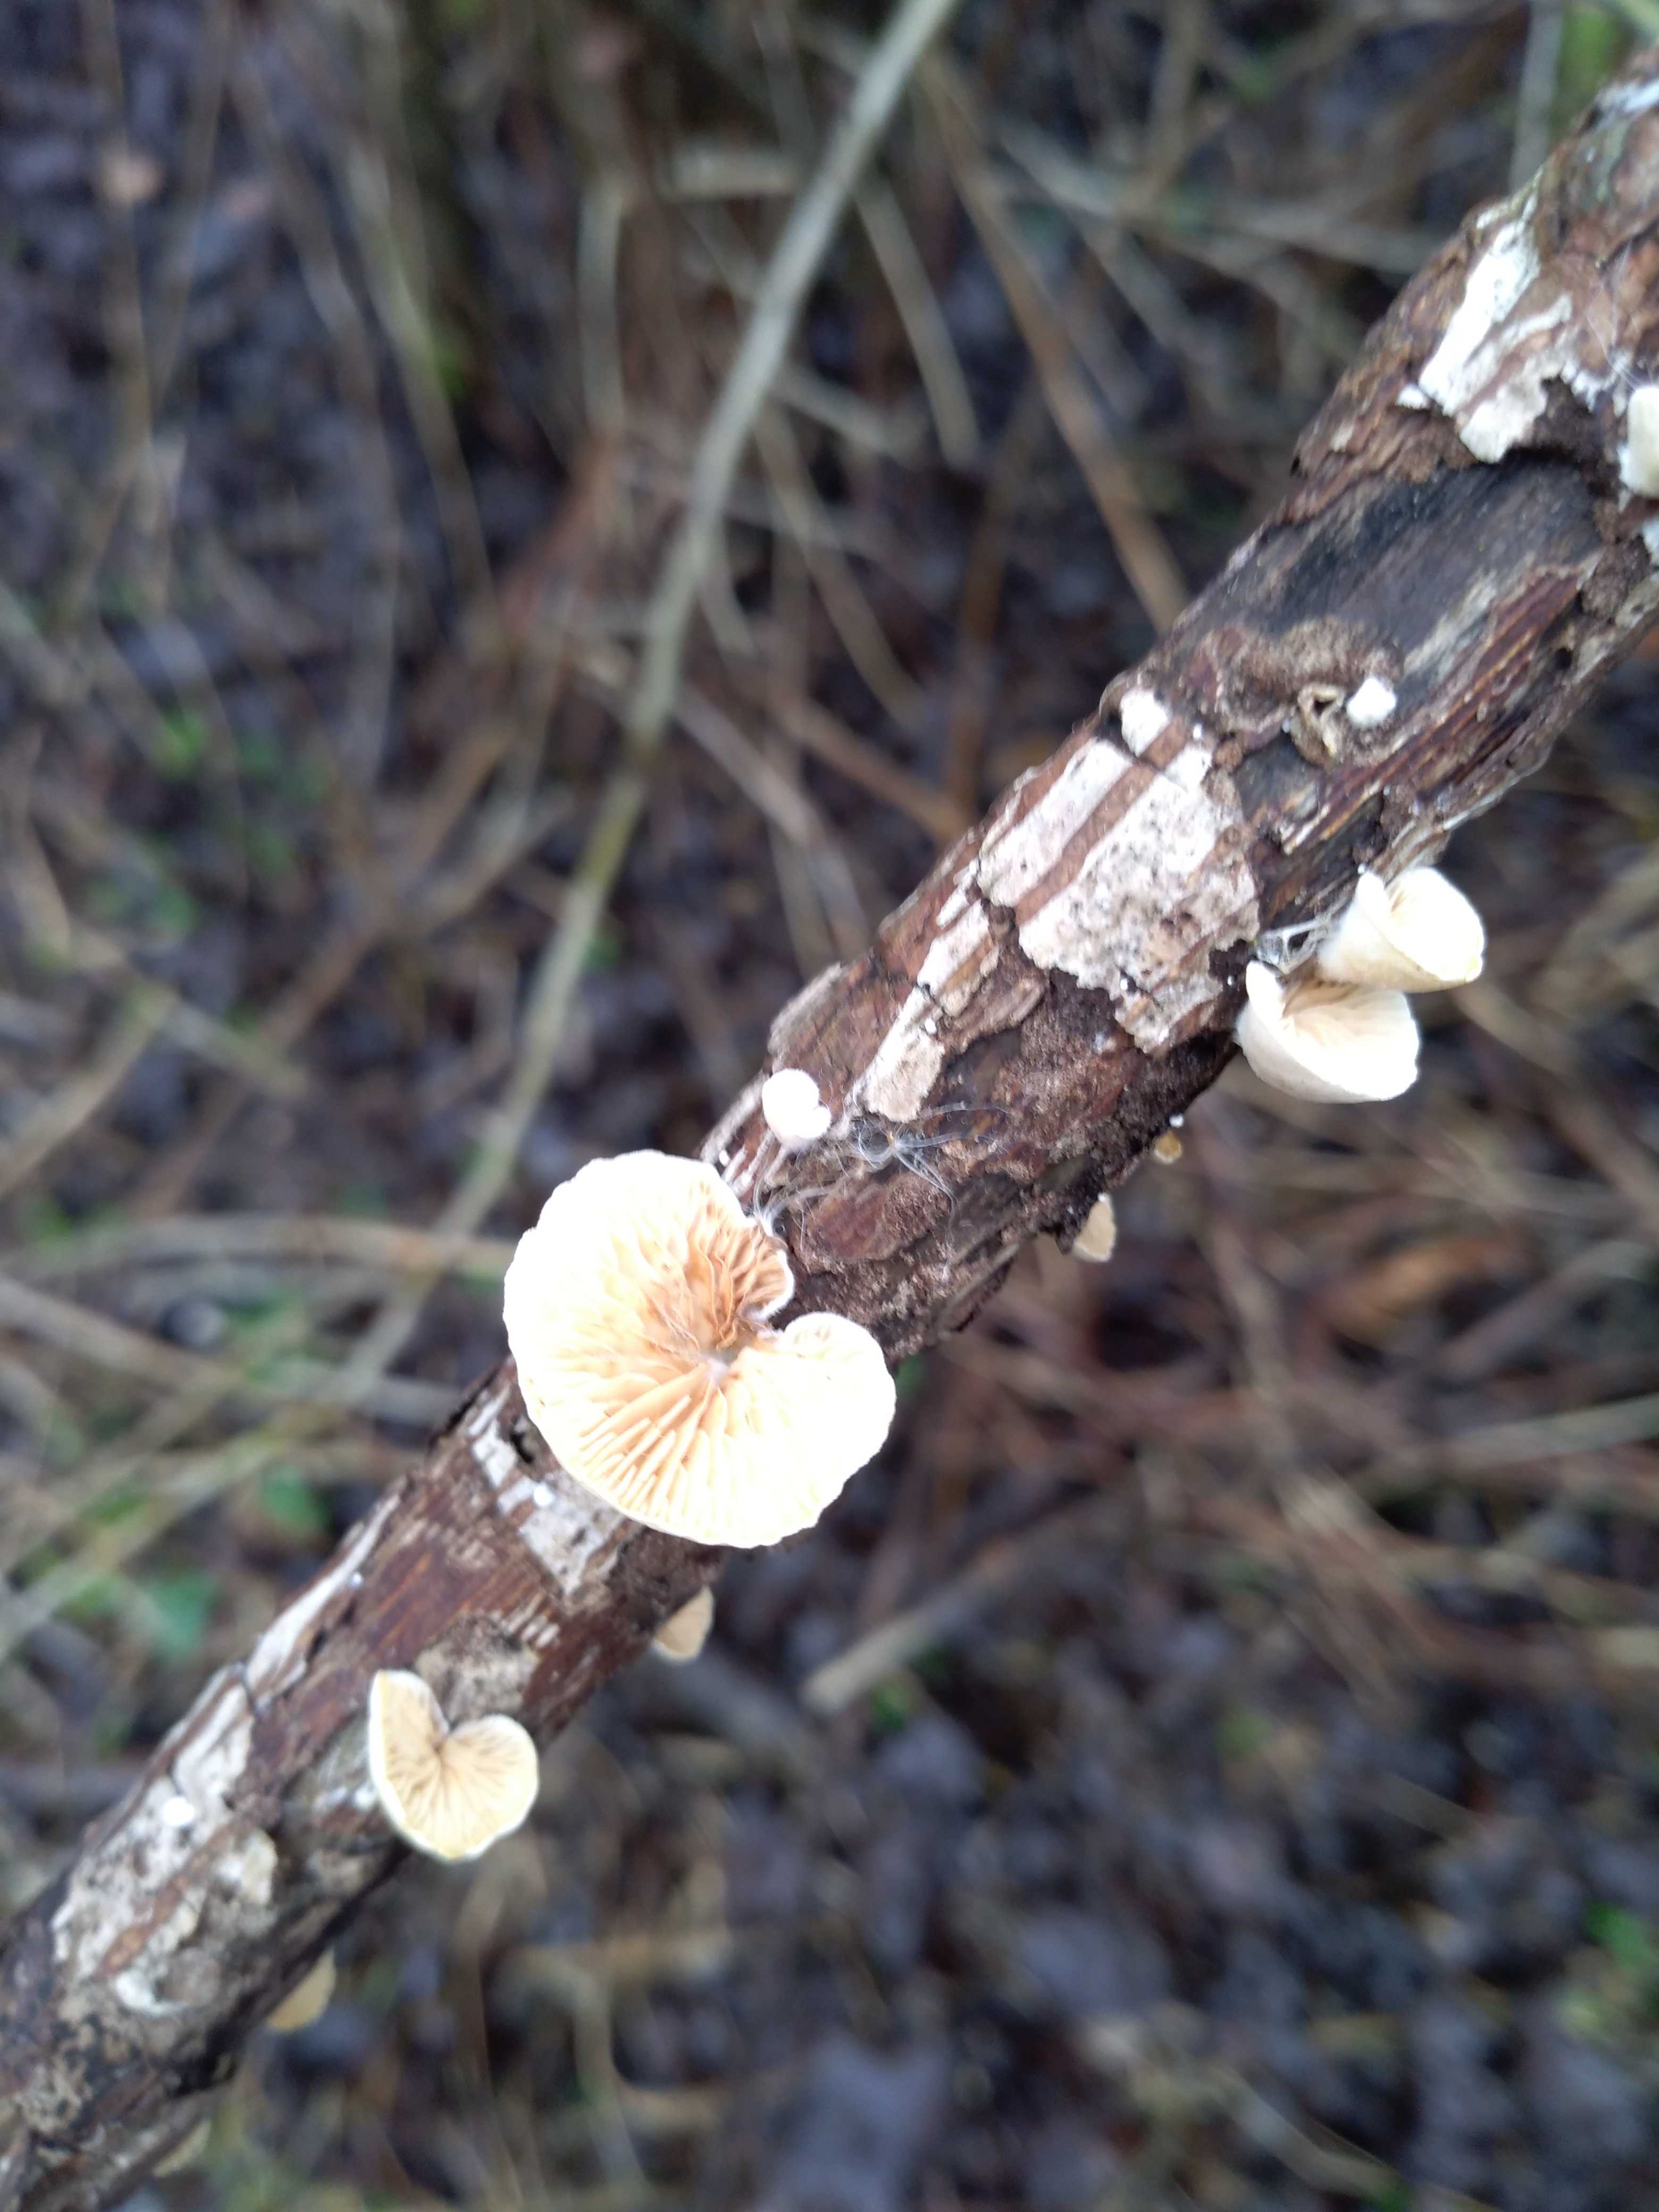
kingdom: Fungi
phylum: Basidiomycota
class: Agaricomycetes
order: Agaricales
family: Crepidotaceae
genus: Crepidotus
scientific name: Crepidotus
